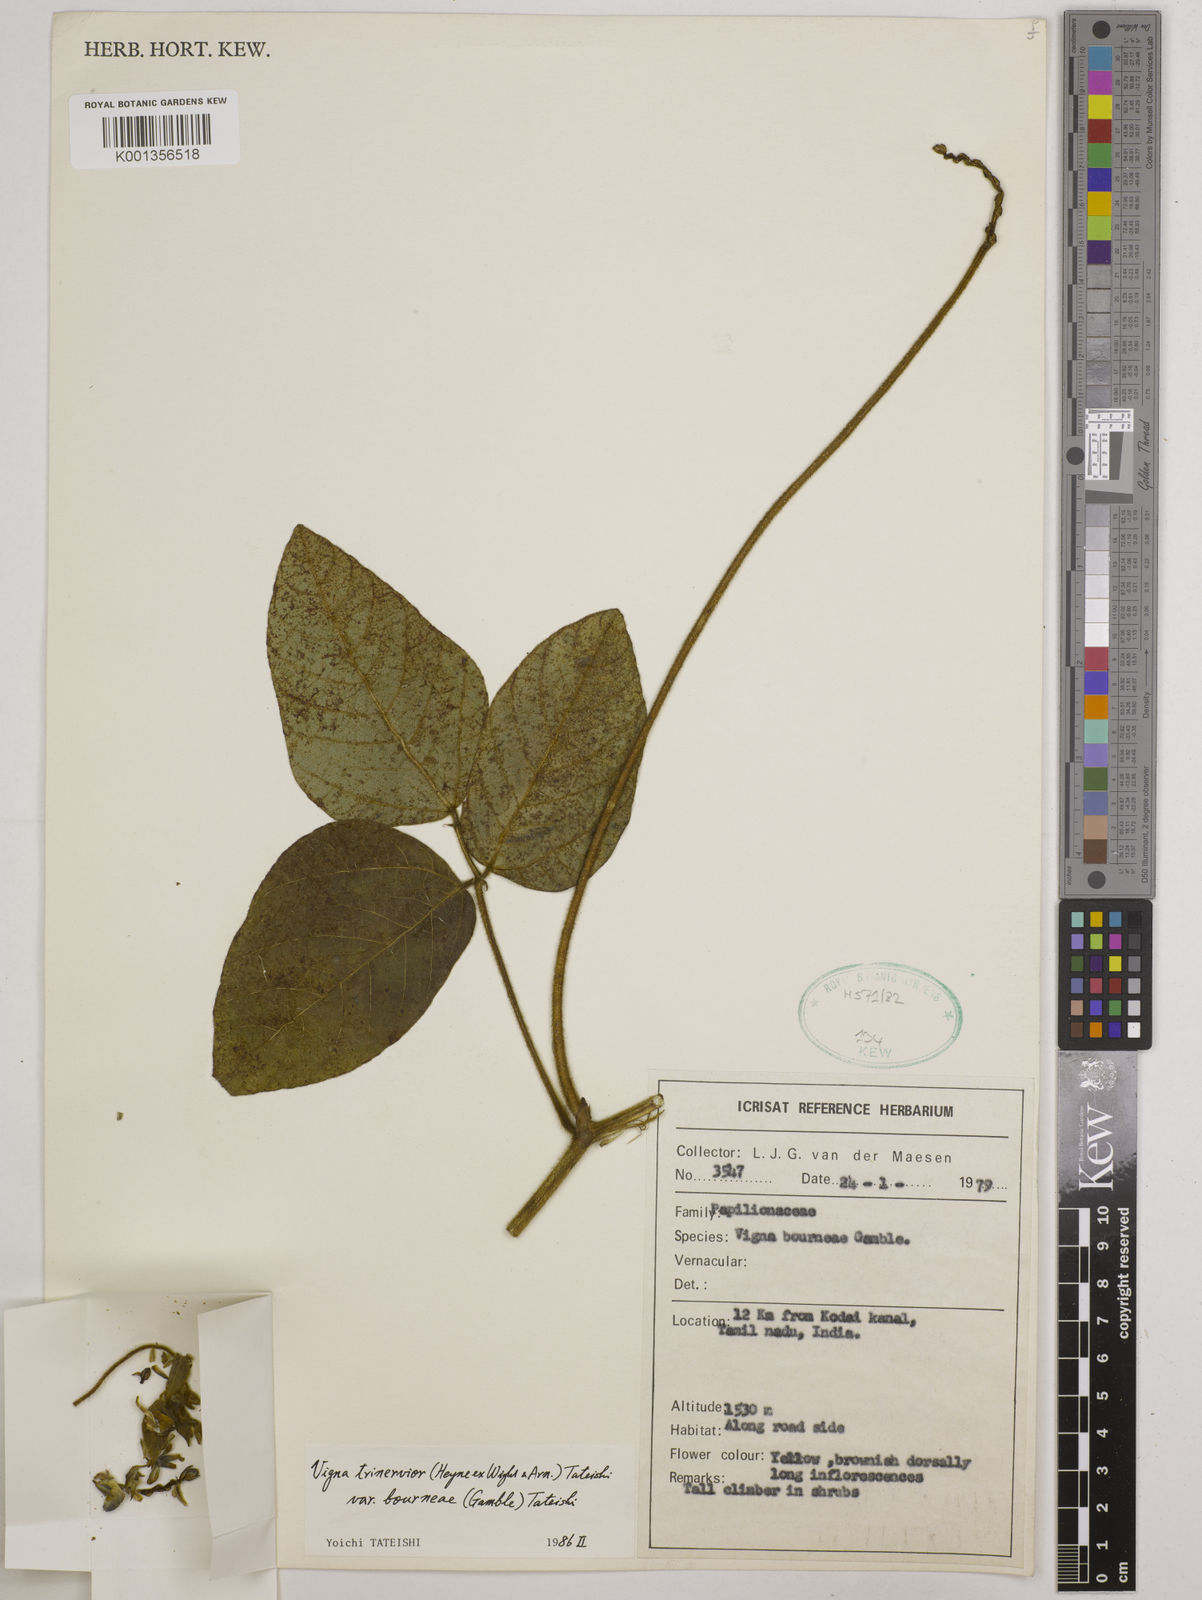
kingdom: Plantae
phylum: Tracheophyta
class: Magnoliopsida
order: Fabales
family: Fabaceae
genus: Vigna
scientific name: Vigna
